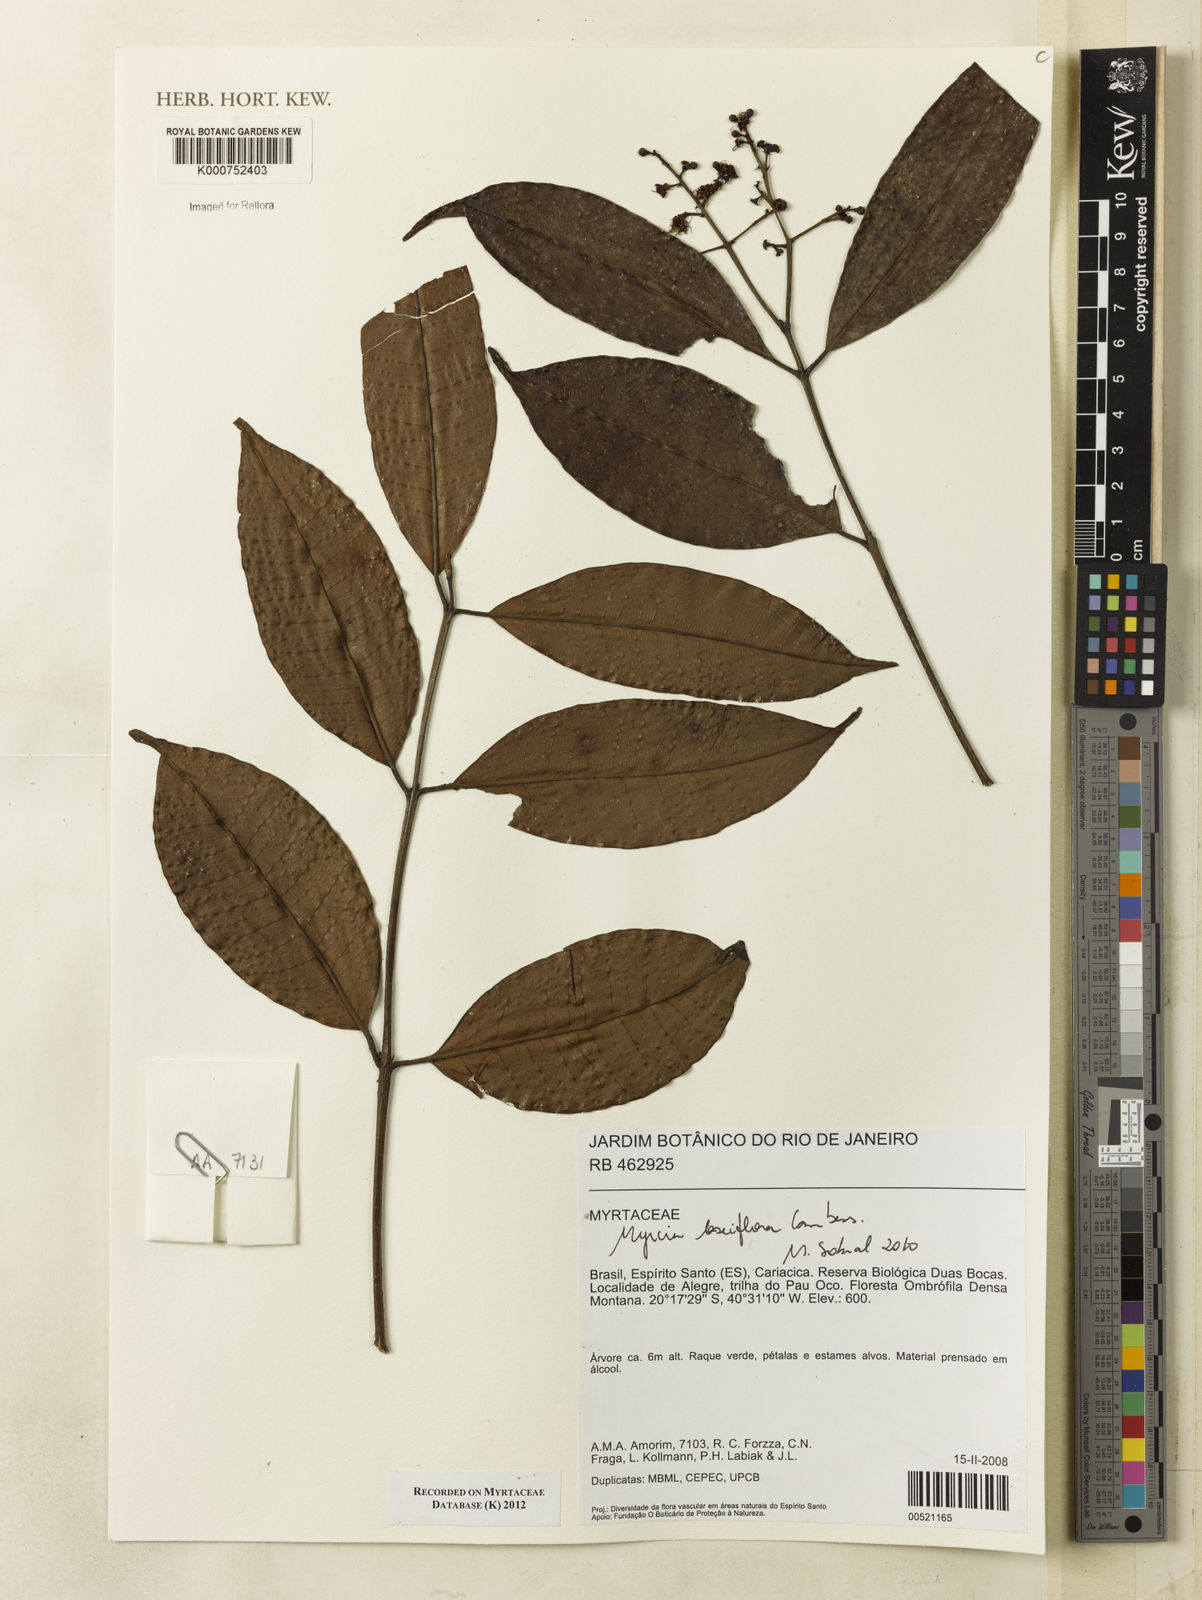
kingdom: Plantae
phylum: Tracheophyta
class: Magnoliopsida
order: Myrtales
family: Myrtaceae
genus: Myrcia
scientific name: Myrcia laxiflora
